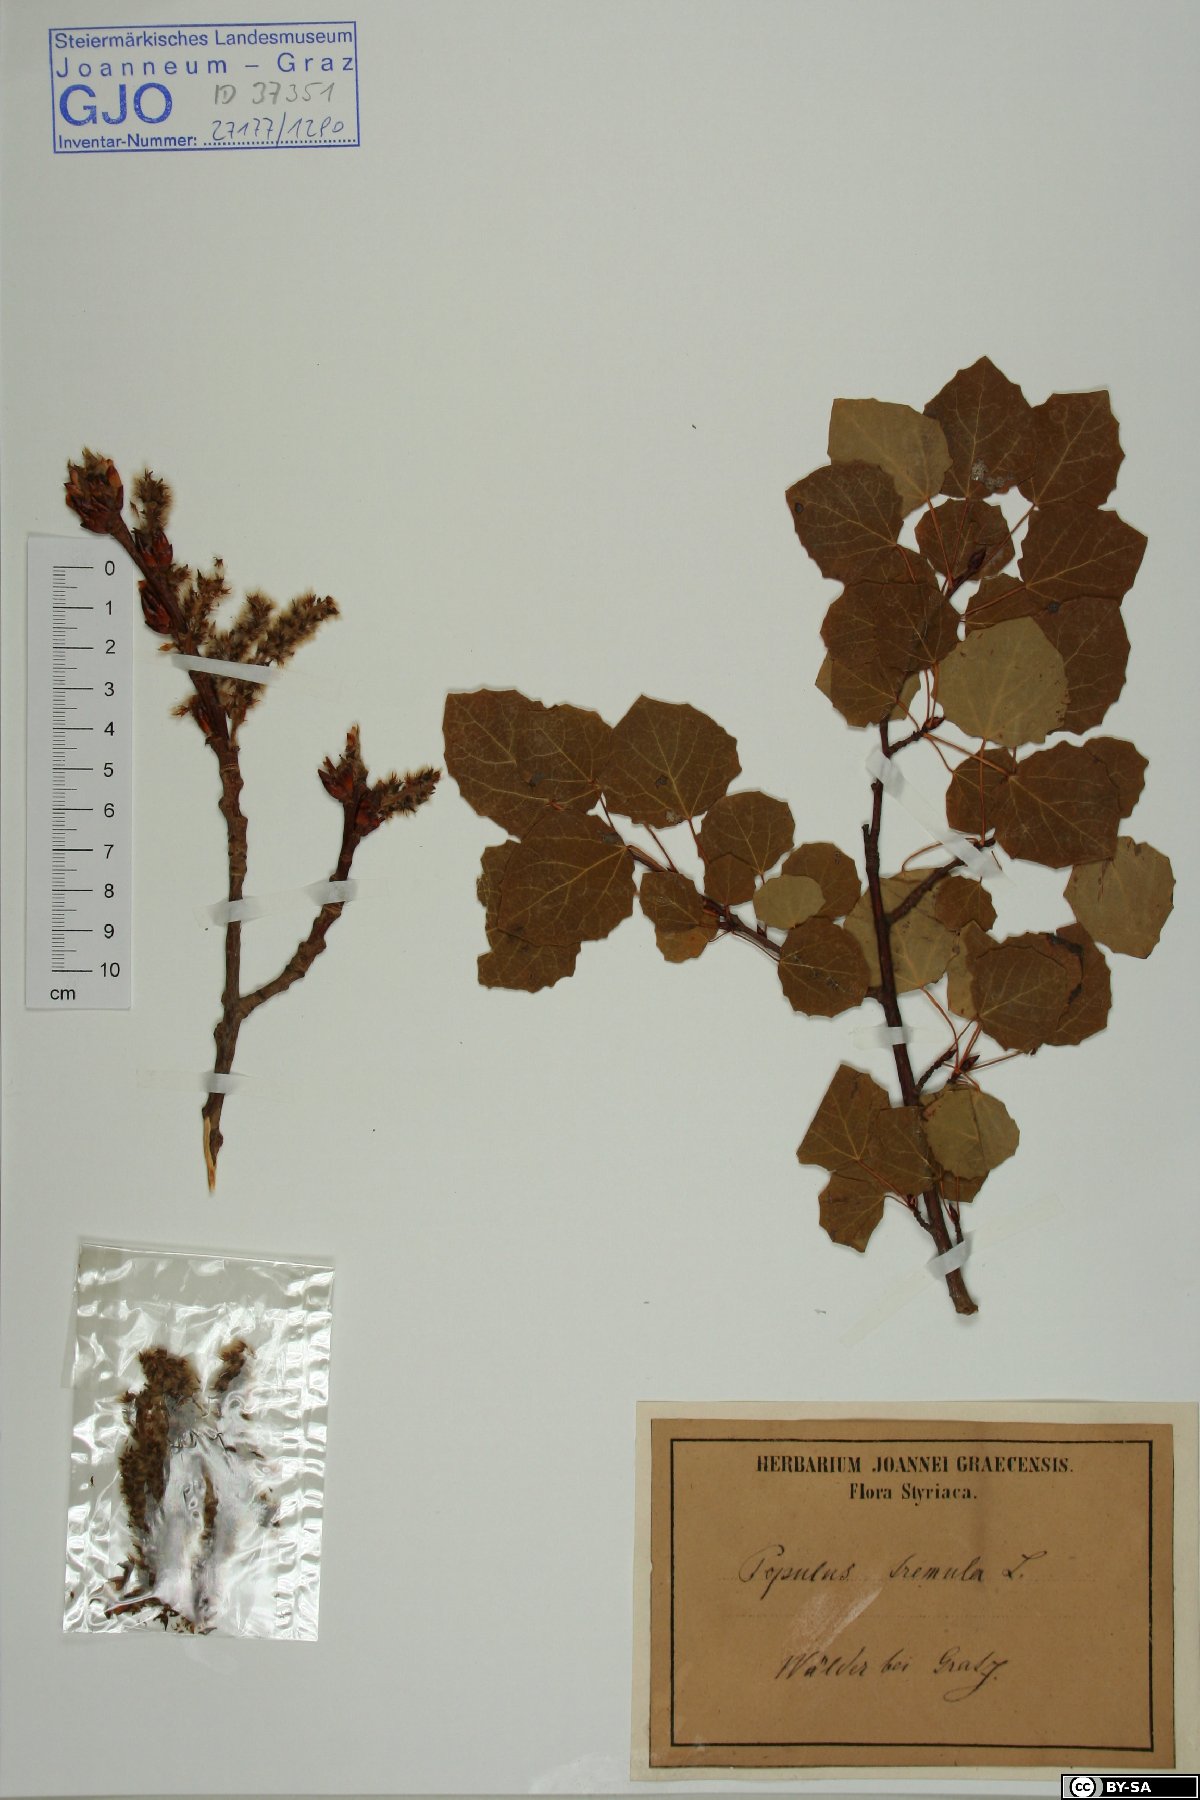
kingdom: Plantae
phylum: Tracheophyta
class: Magnoliopsida
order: Malpighiales
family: Salicaceae
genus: Populus
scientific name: Populus tremula
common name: European aspen
